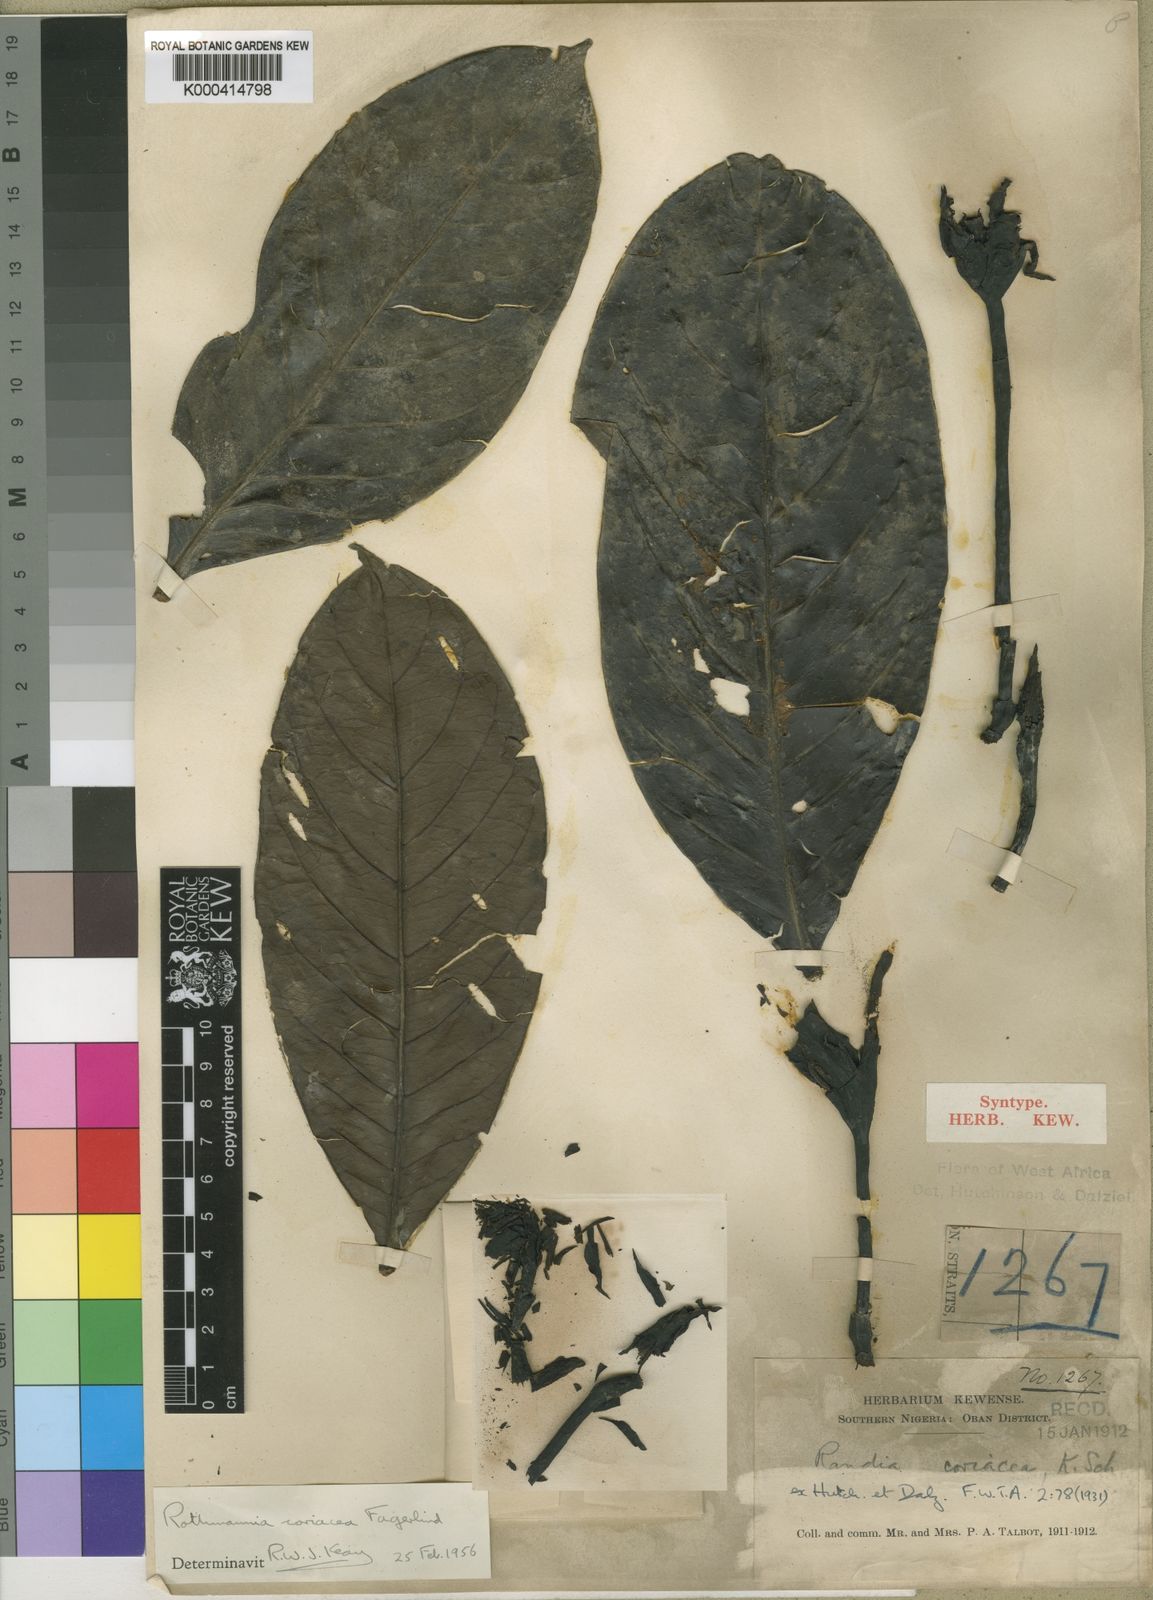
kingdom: Plantae
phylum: Tracheophyta
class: Magnoliopsida
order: Gentianales
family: Rubiaceae
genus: Rothmannia
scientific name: Rothmannia lujae
